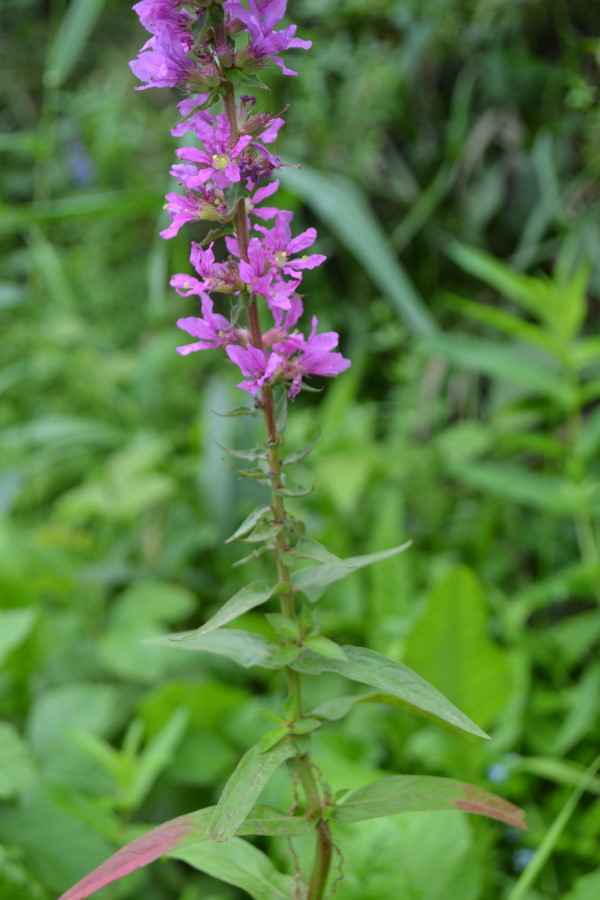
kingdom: Plantae
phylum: Tracheophyta
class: Magnoliopsida
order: Myrtales
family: Lythraceae
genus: Lythrum
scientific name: Lythrum salicaria
